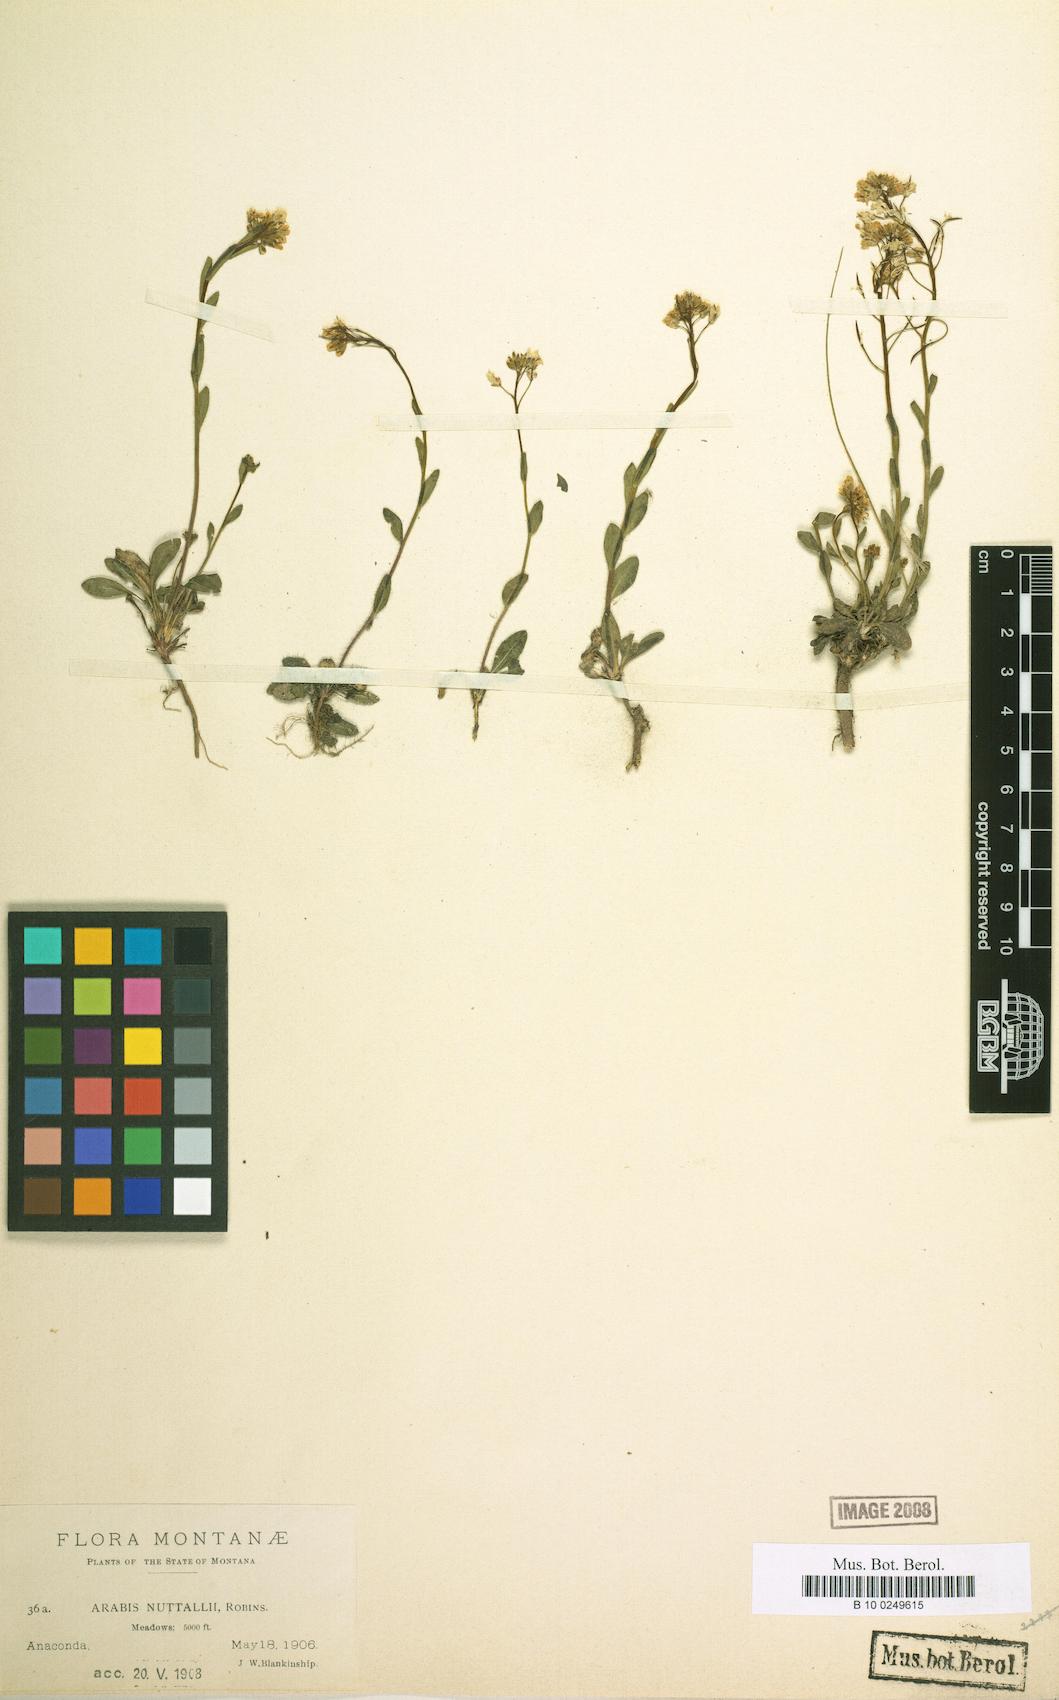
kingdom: Plantae
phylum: Tracheophyta
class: Magnoliopsida
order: Brassicales
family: Brassicaceae
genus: Arabis
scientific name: Arabis nuttallii
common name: Nuttall's rockcress
